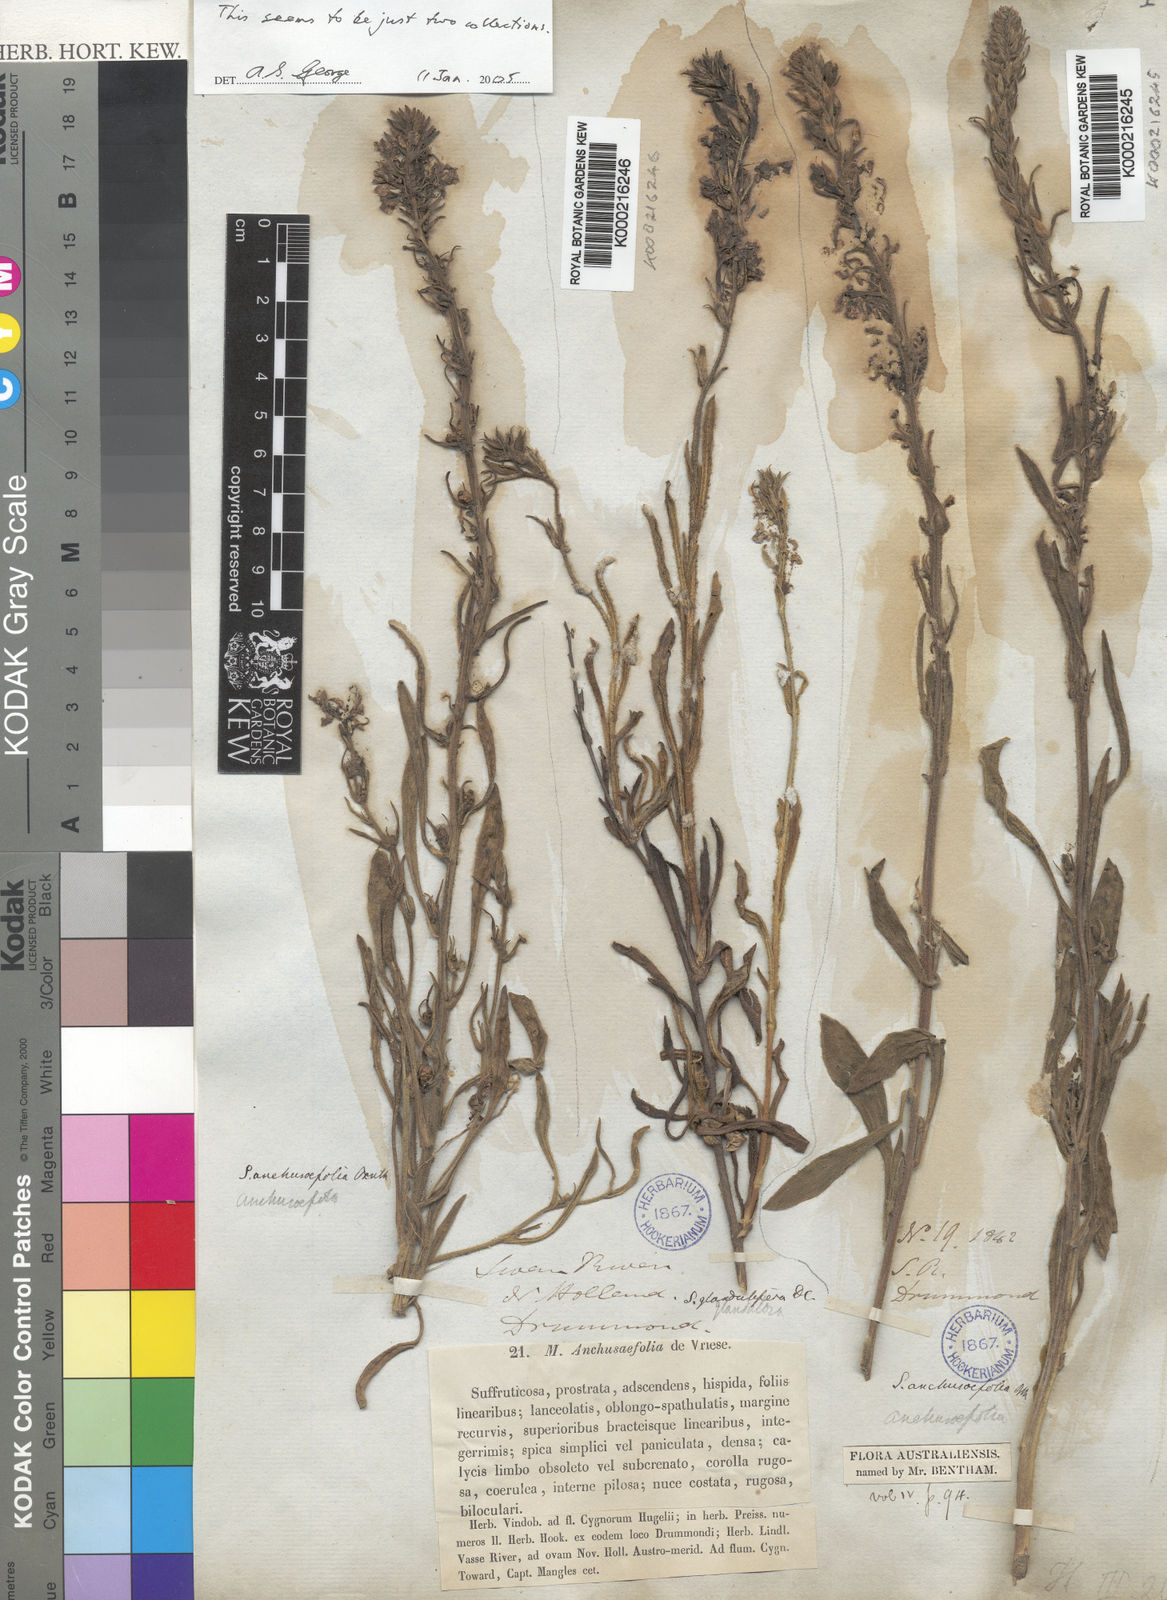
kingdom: Plantae
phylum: Tracheophyta
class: Magnoliopsida
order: Asterales
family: Goodeniaceae
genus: Scaevola
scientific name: Scaevola glandulifera
